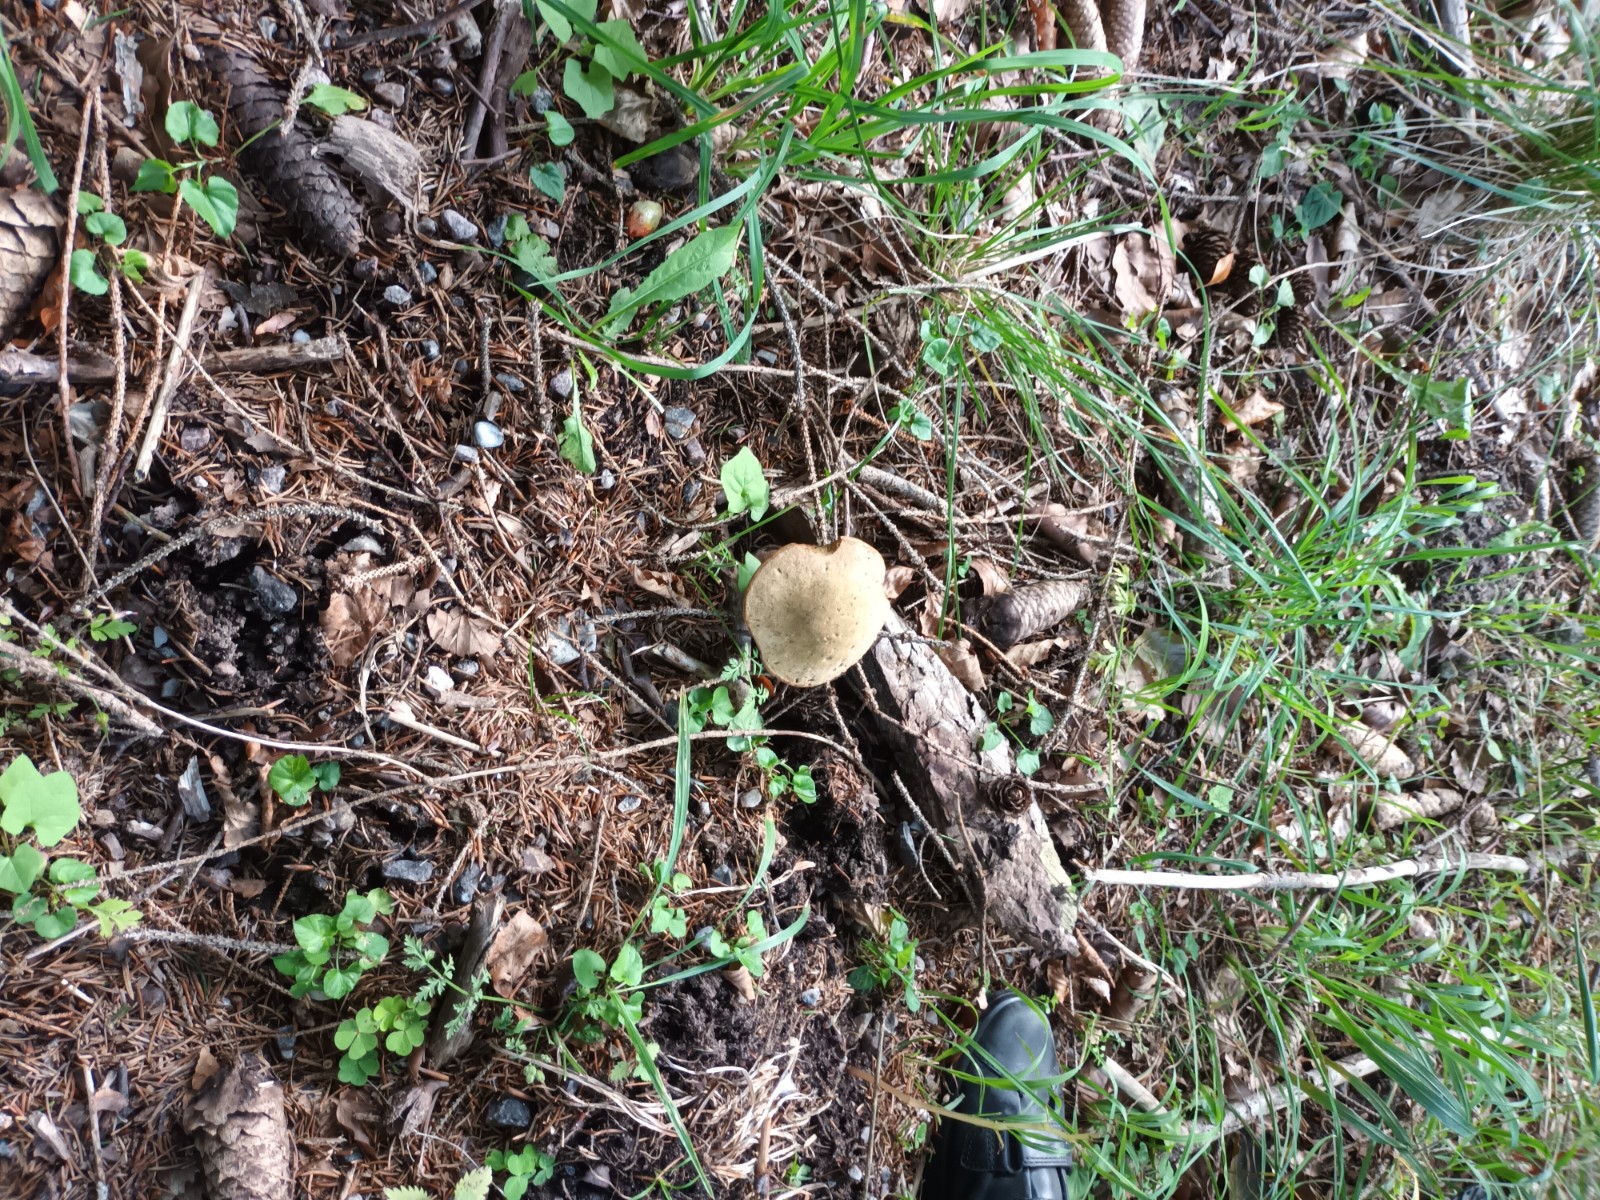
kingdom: Fungi
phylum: Basidiomycota
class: Agaricomycetes
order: Boletales
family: Boletaceae
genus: Suillellus
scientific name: Suillellus luridus
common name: netstokket indigorørhat
